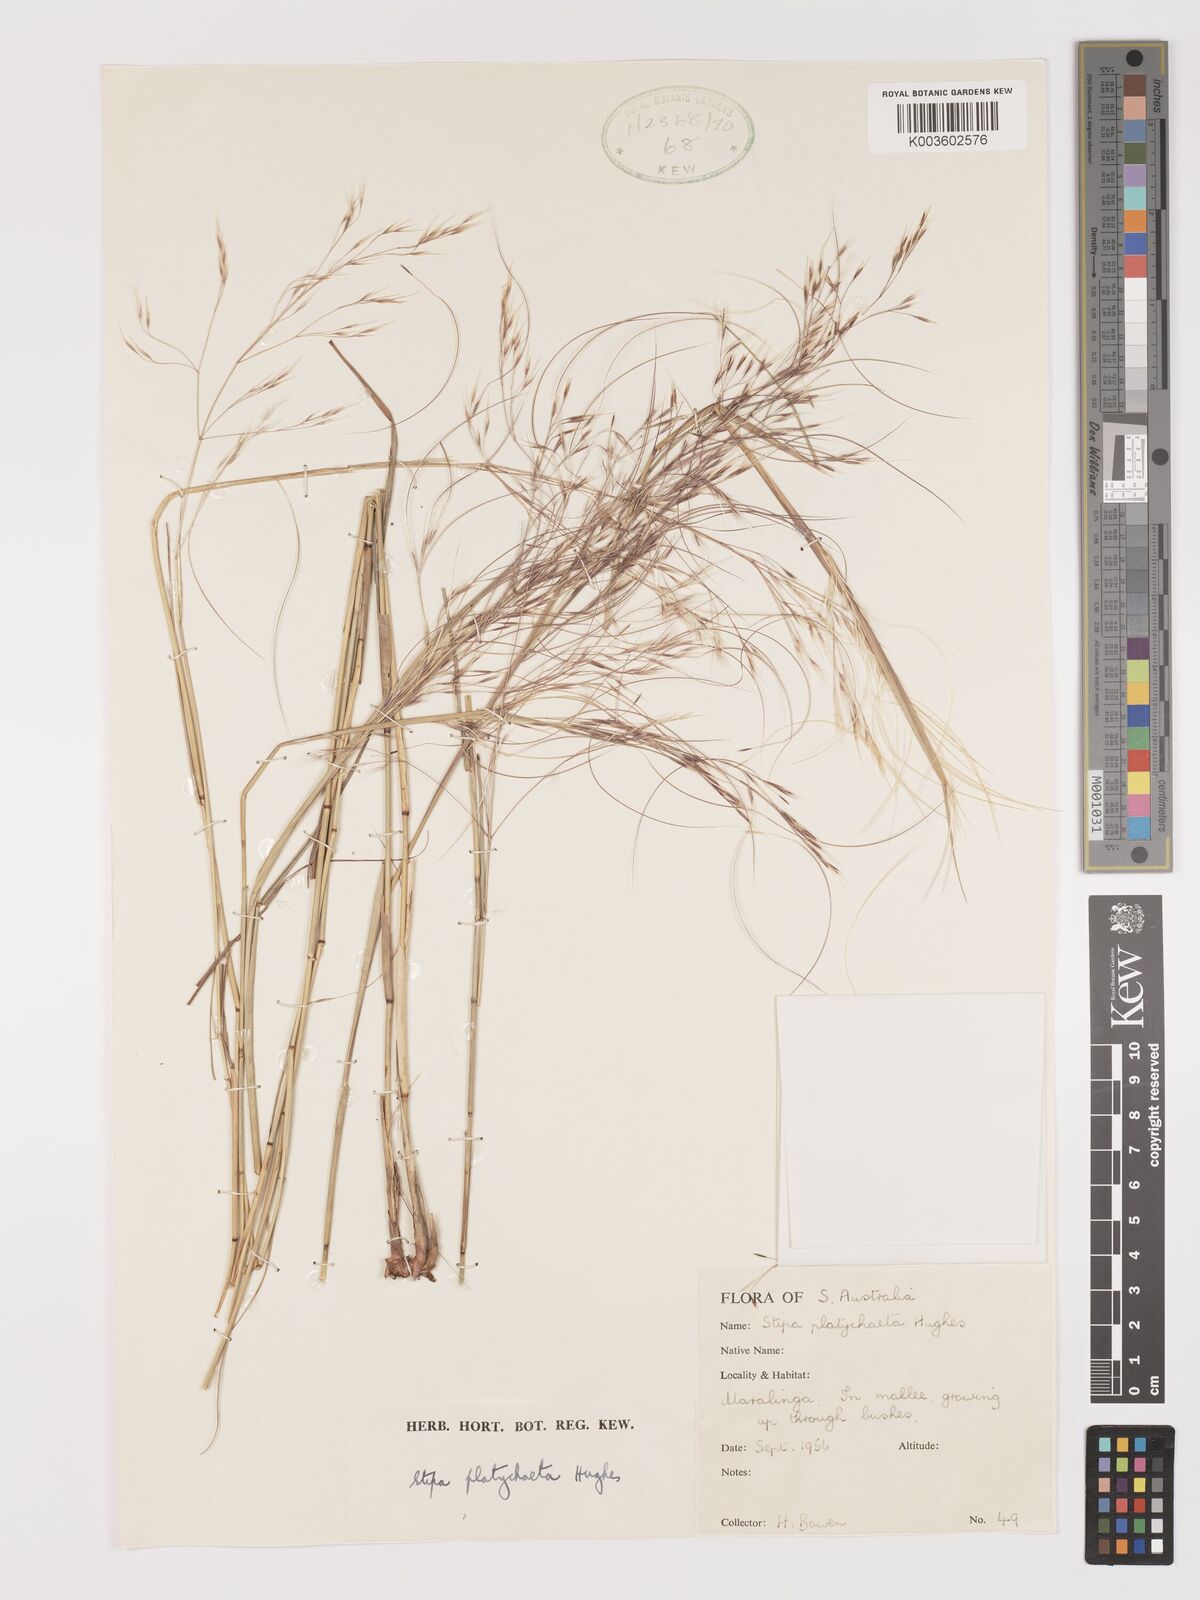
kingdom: Plantae
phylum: Tracheophyta
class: Liliopsida
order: Poales
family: Poaceae
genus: Austrostipa
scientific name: Austrostipa platychaeta
